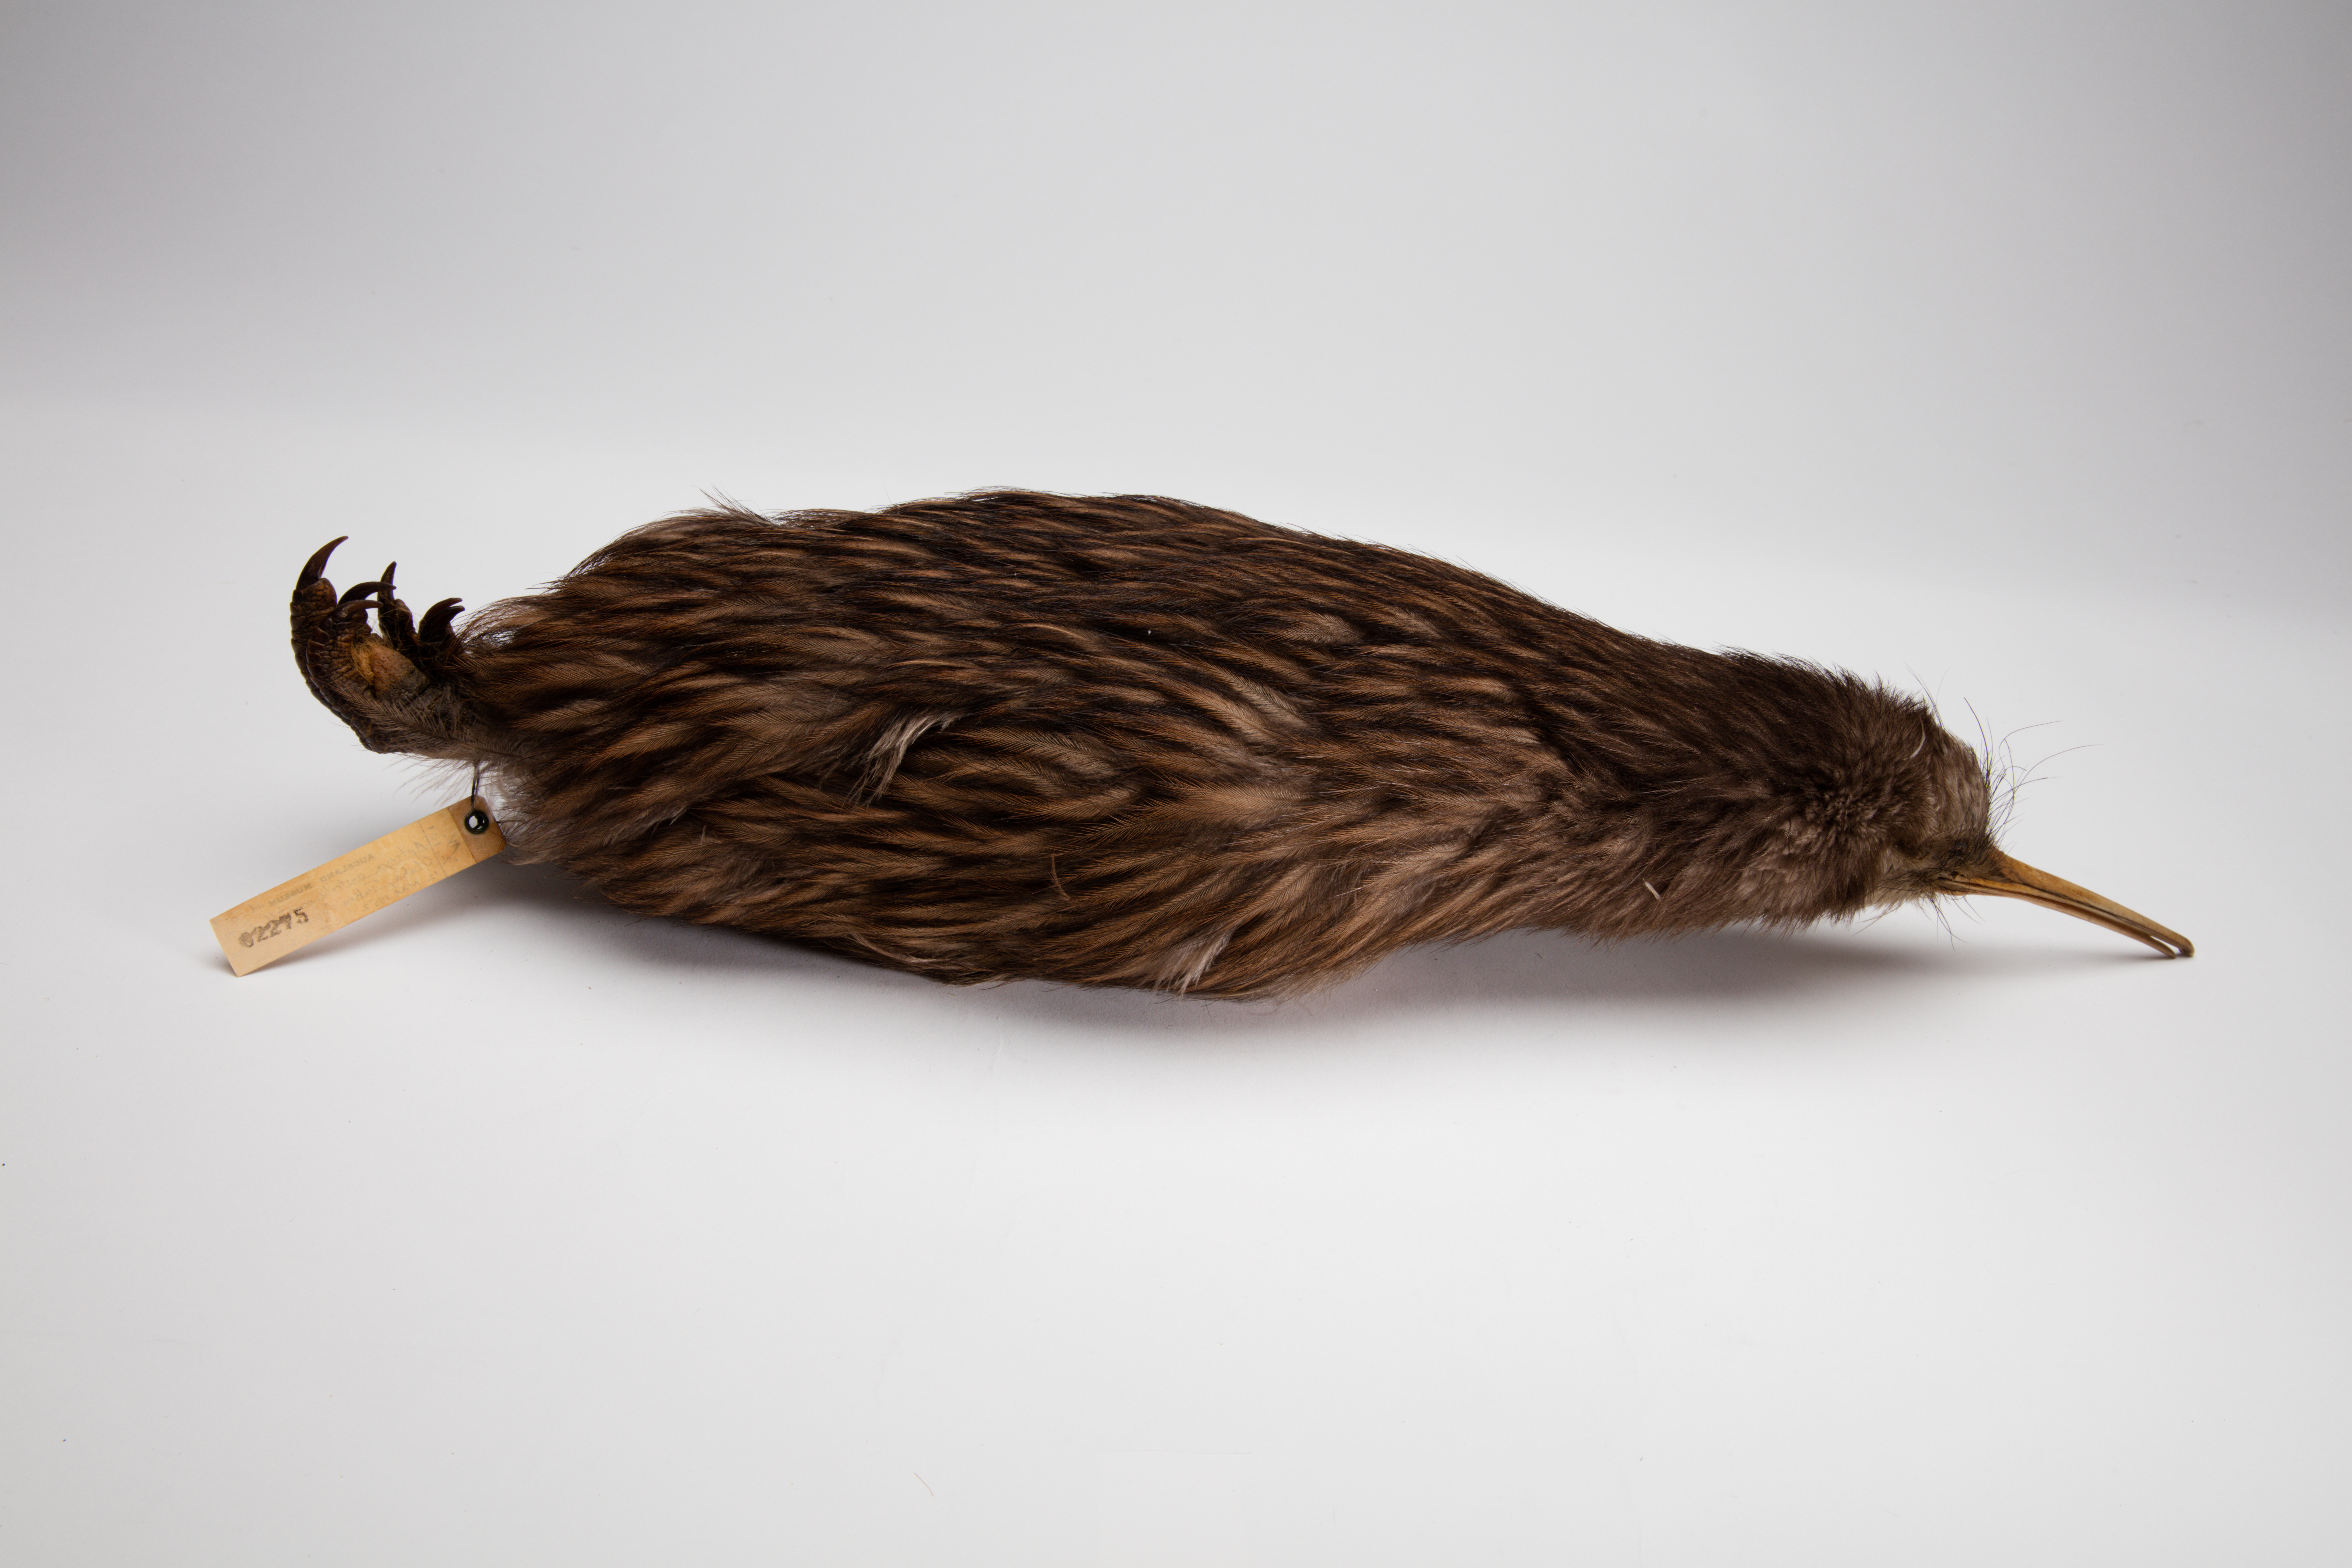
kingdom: Animalia
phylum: Chordata
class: Aves
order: Apterygiformes
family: Apterygidae
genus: Apteryx
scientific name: Apteryx mantelli
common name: North island brown kiwi
